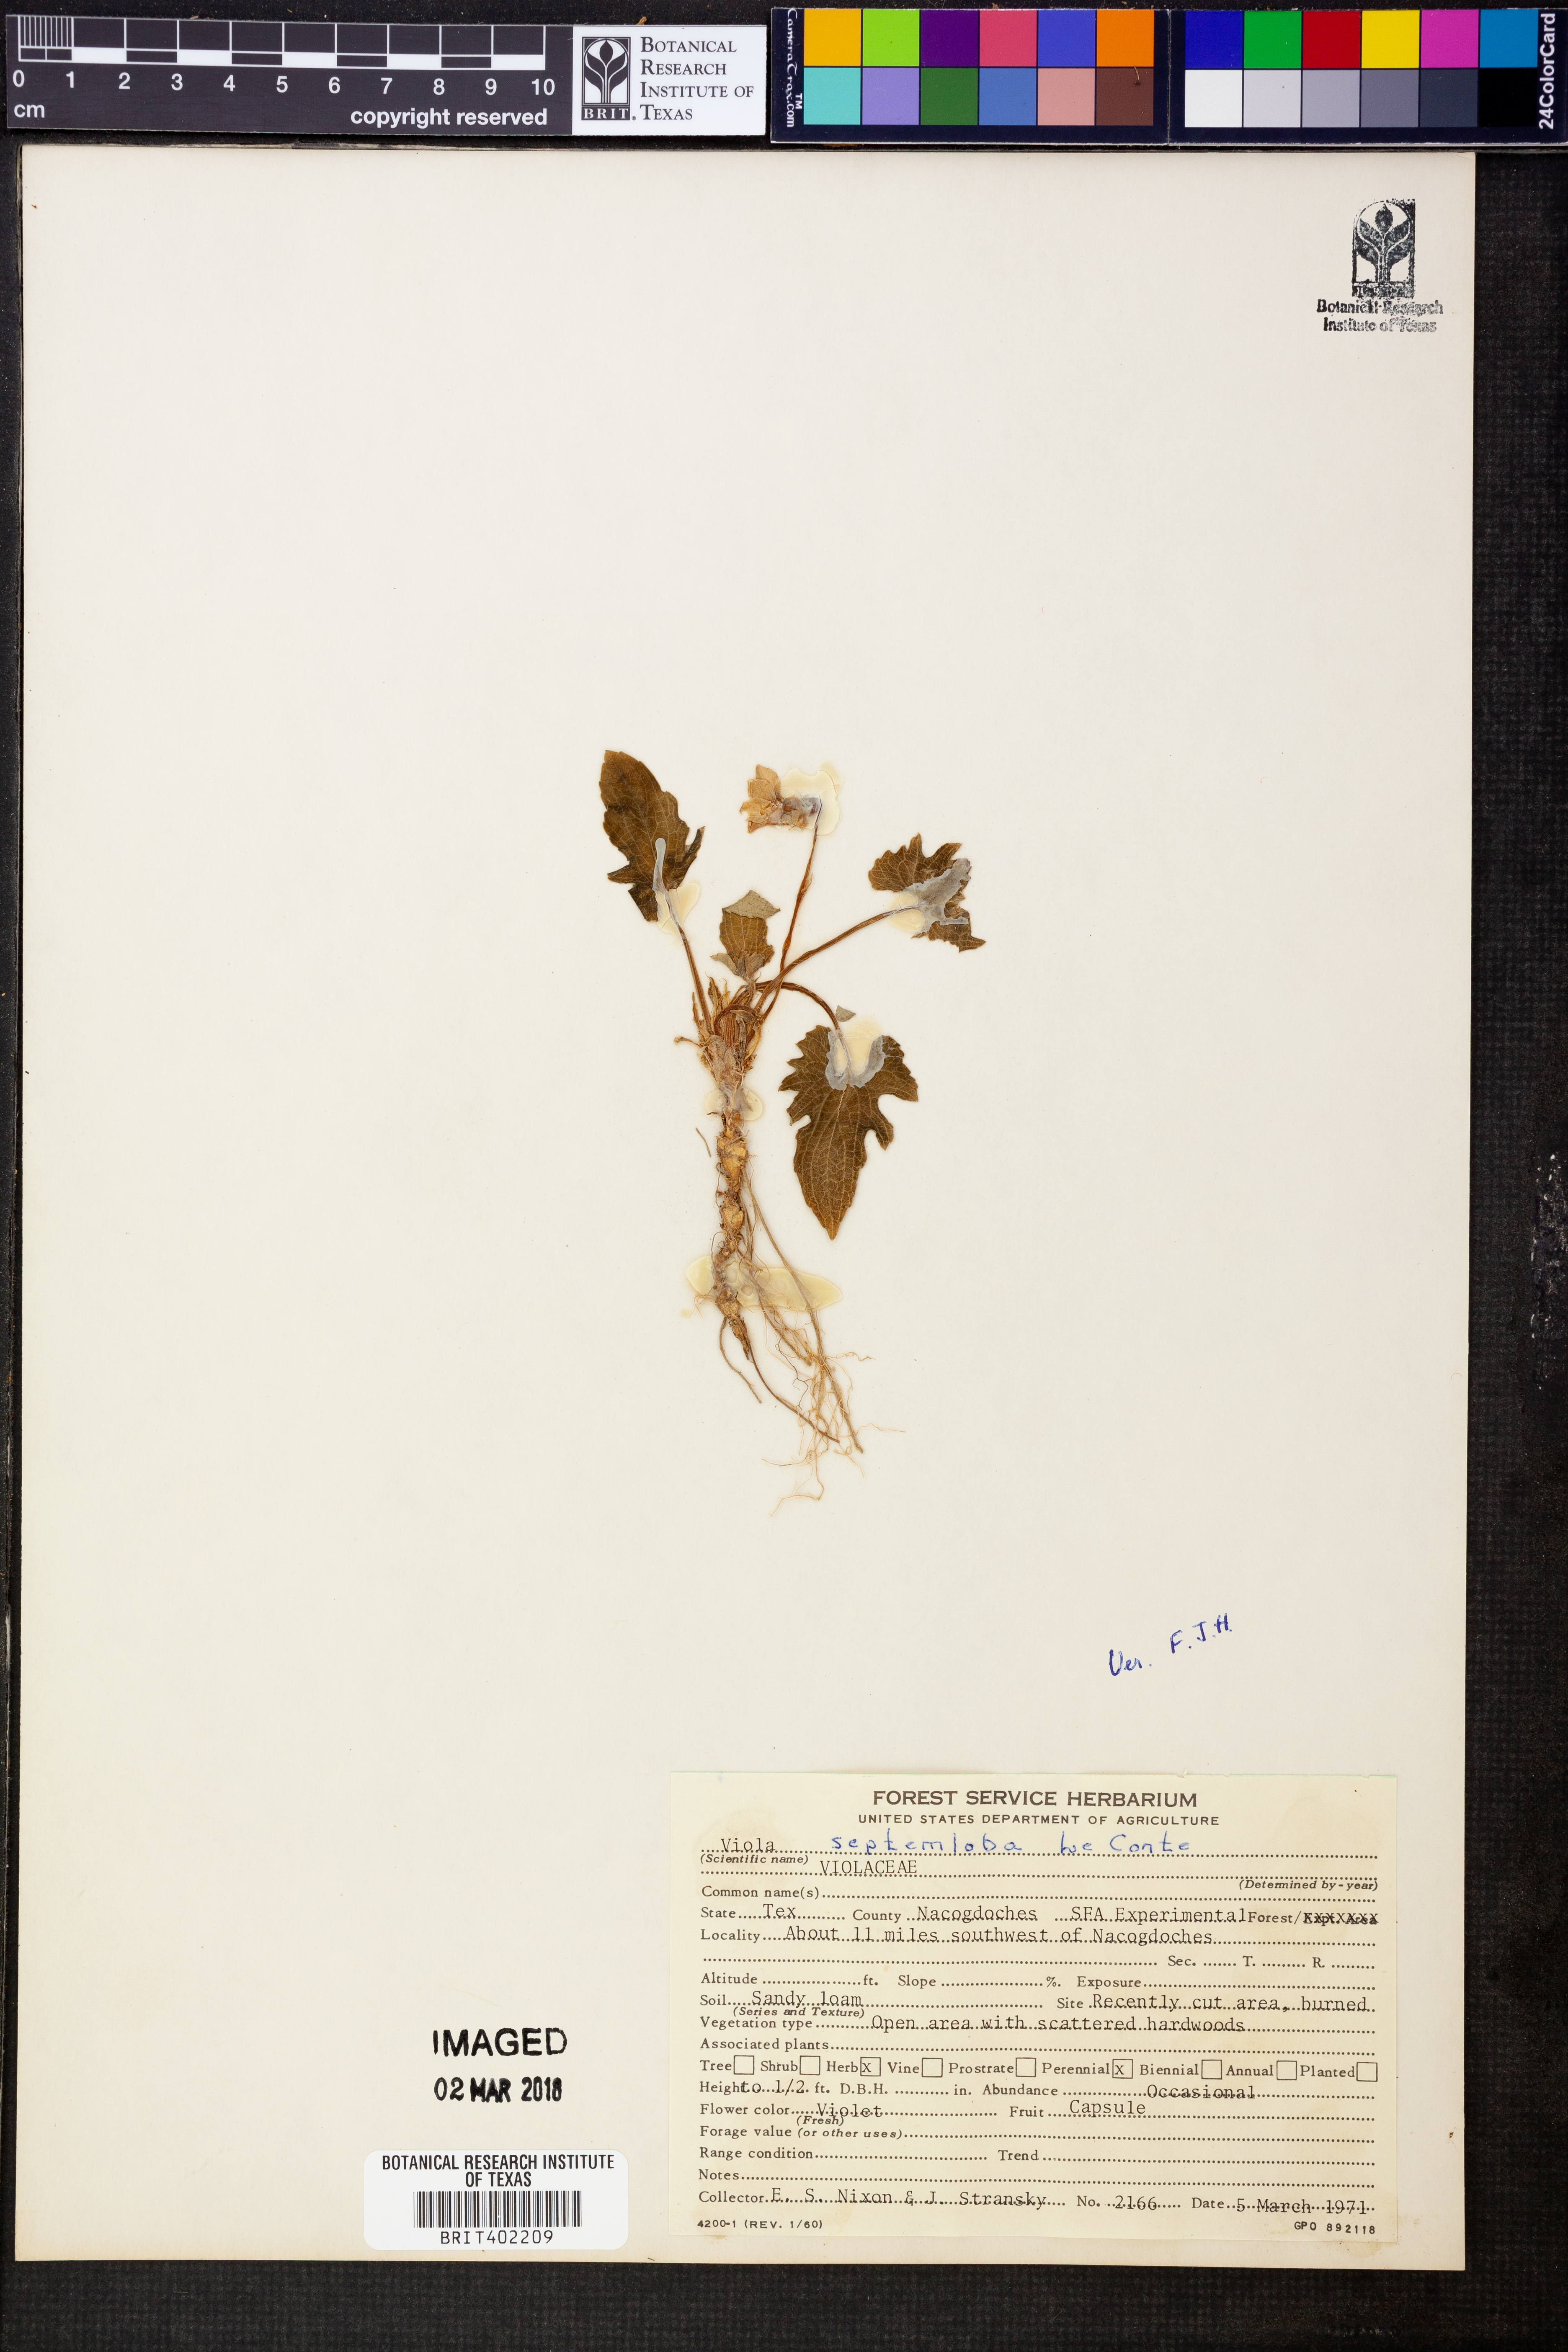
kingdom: Plantae
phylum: Tracheophyta
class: Magnoliopsida
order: Malpighiales
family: Violaceae
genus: Viola
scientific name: Viola septemloba
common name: Southern coast violet
